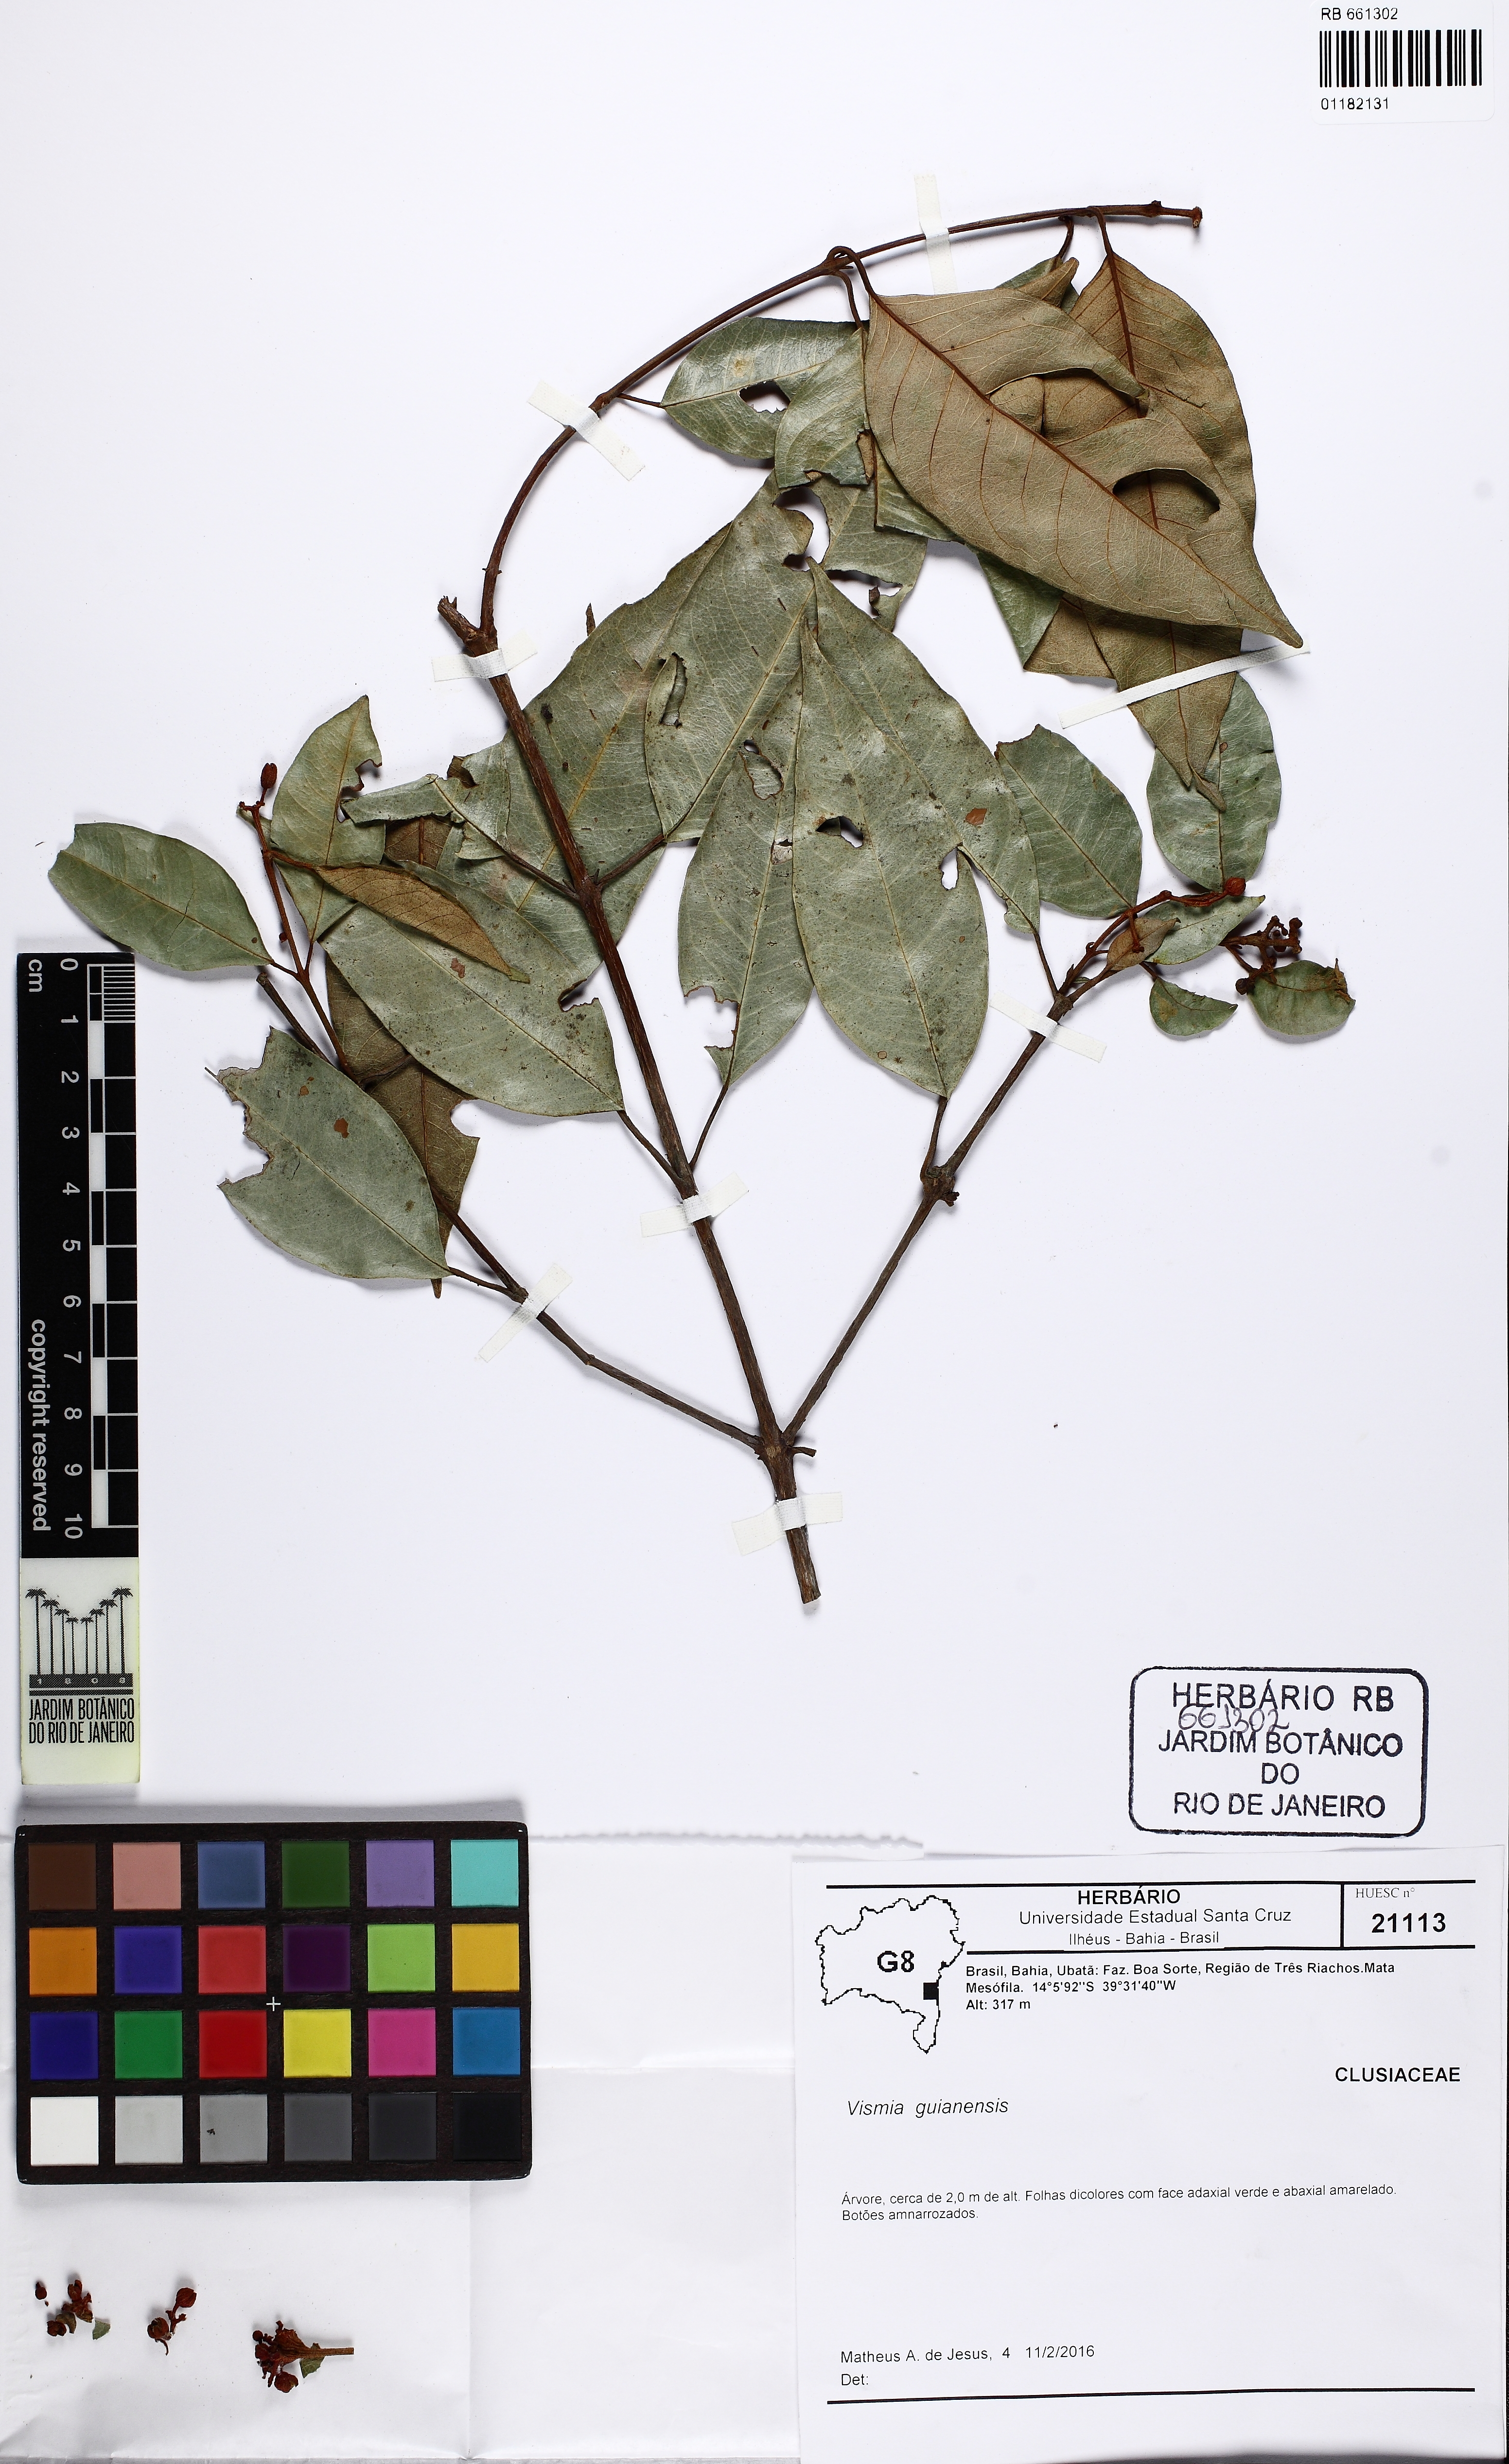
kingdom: Plantae
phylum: Tracheophyta
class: Magnoliopsida
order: Malpighiales
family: Hypericaceae
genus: Vismia
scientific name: Vismia guianensis
